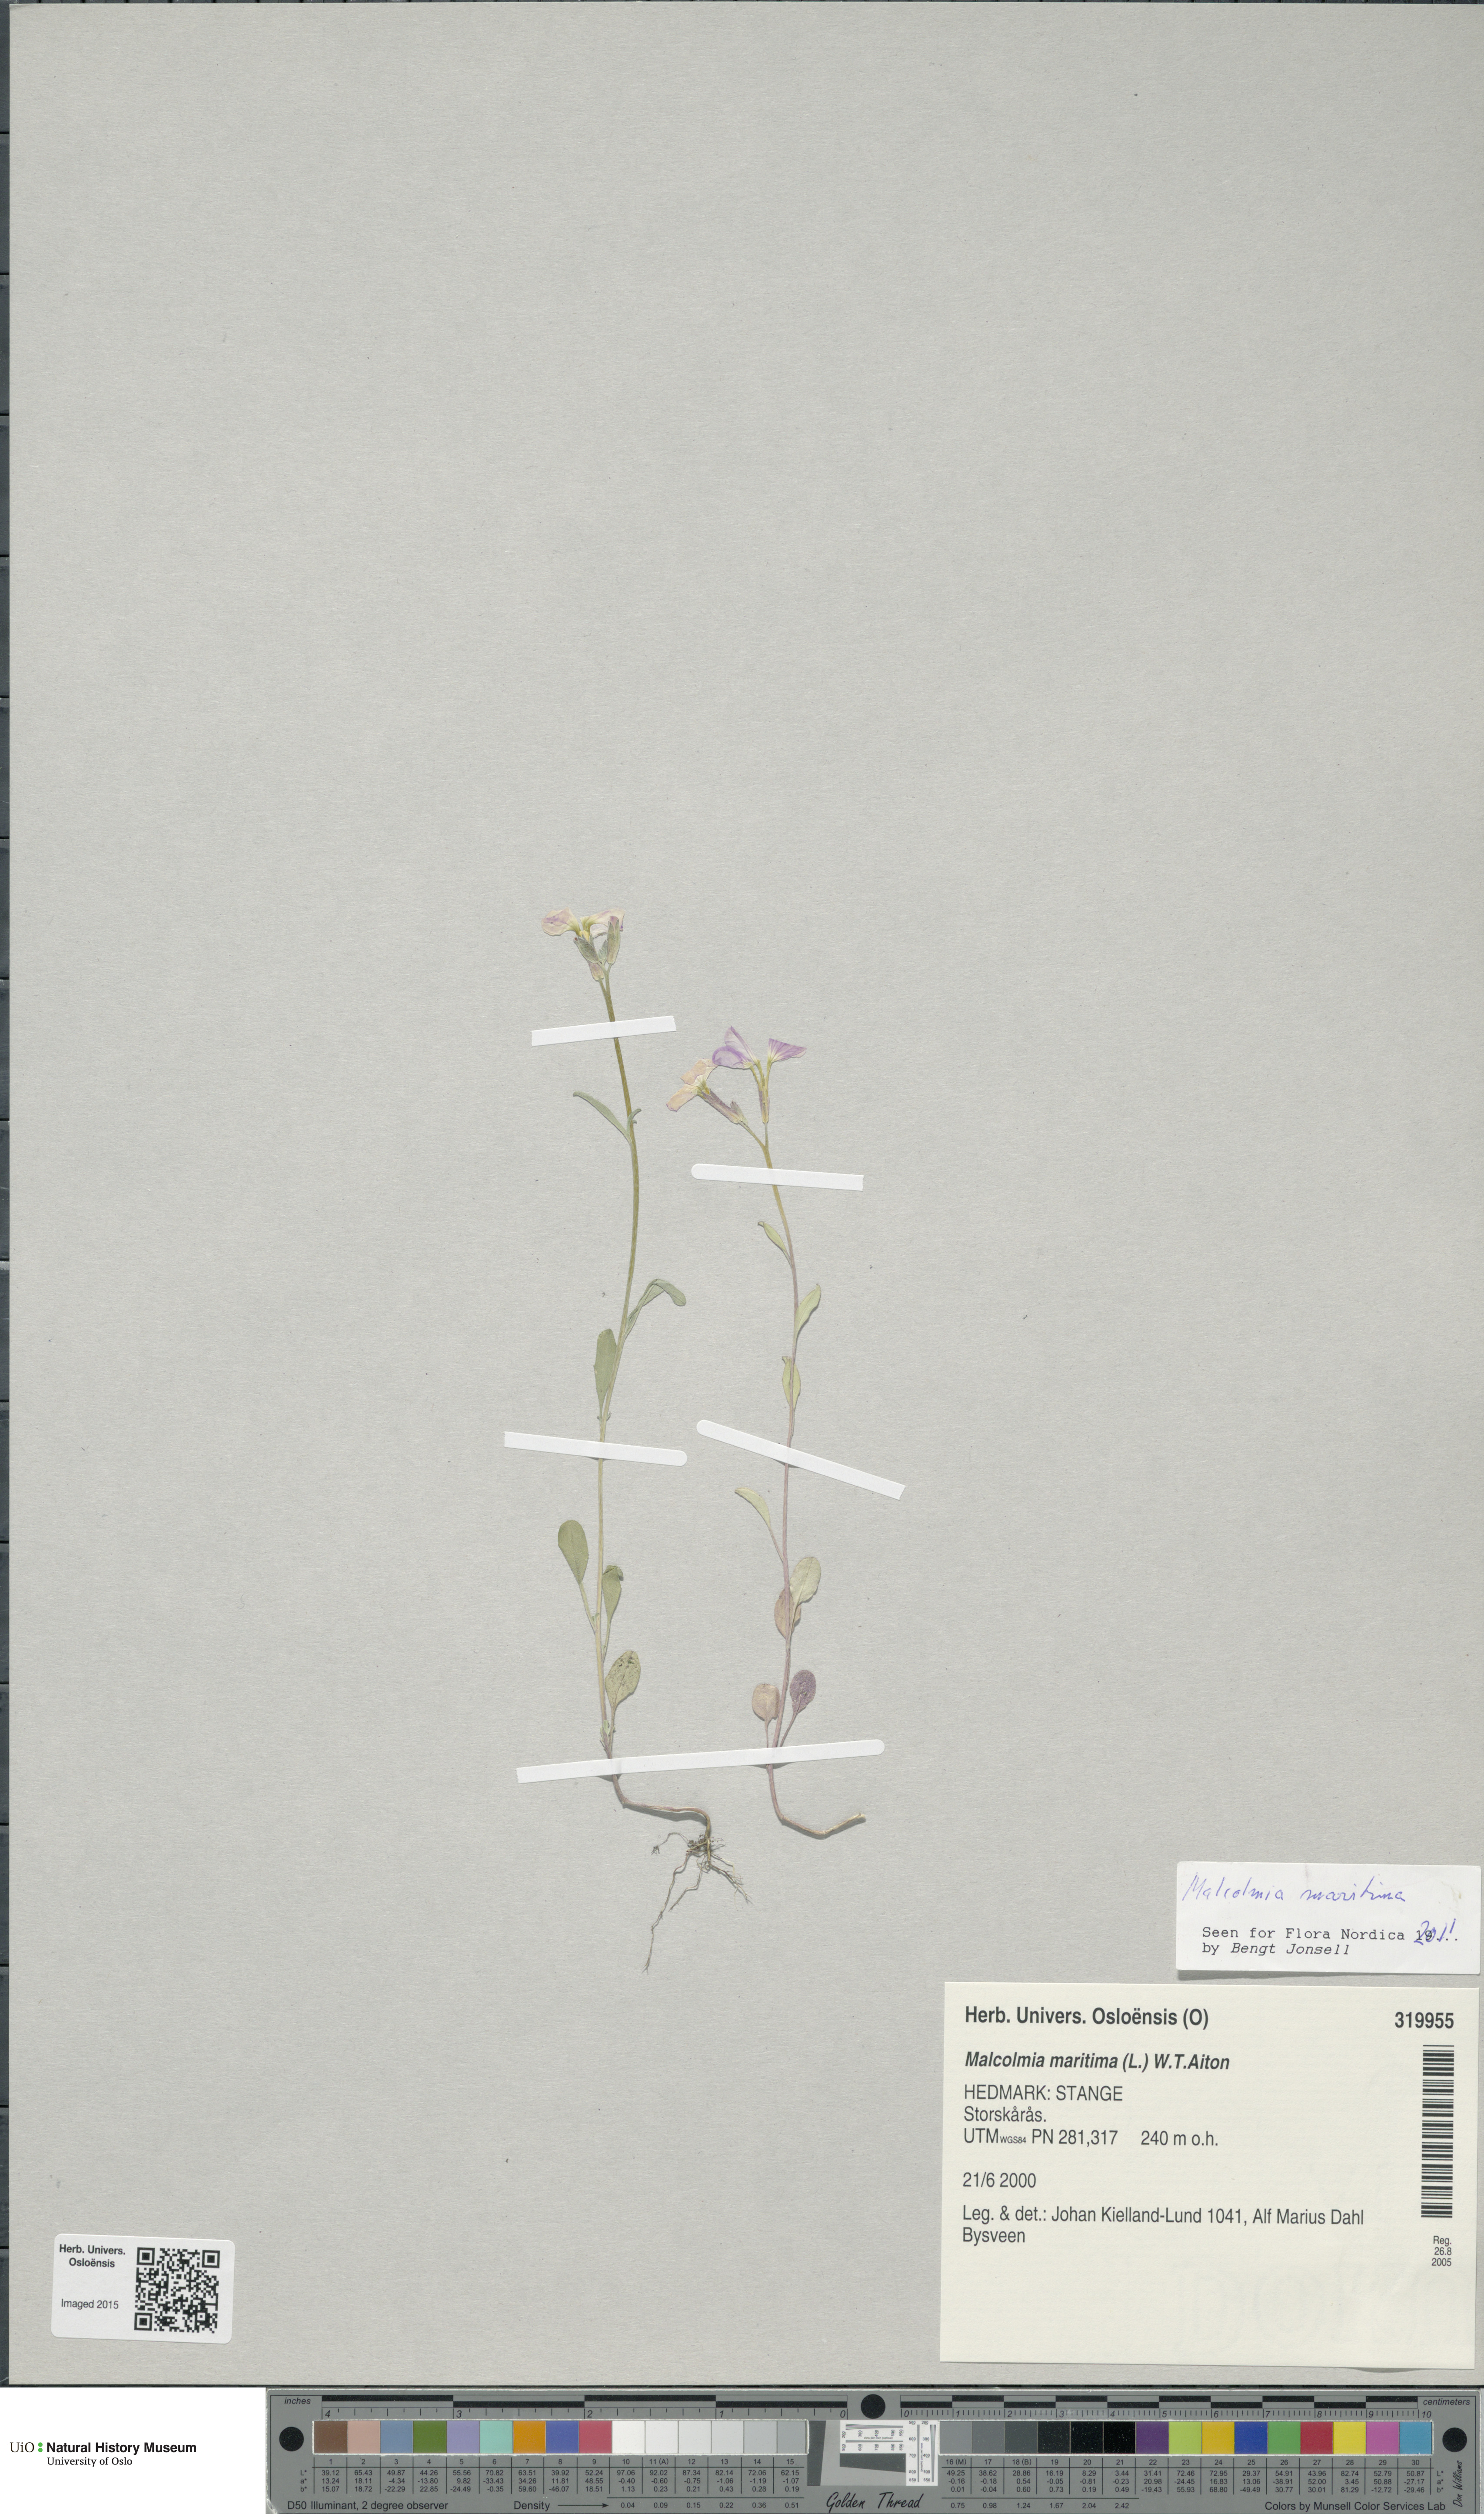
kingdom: Plantae
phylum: Tracheophyta
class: Magnoliopsida
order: Brassicales
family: Brassicaceae
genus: Malcolmia
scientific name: Malcolmia maritima
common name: Virginia stock
